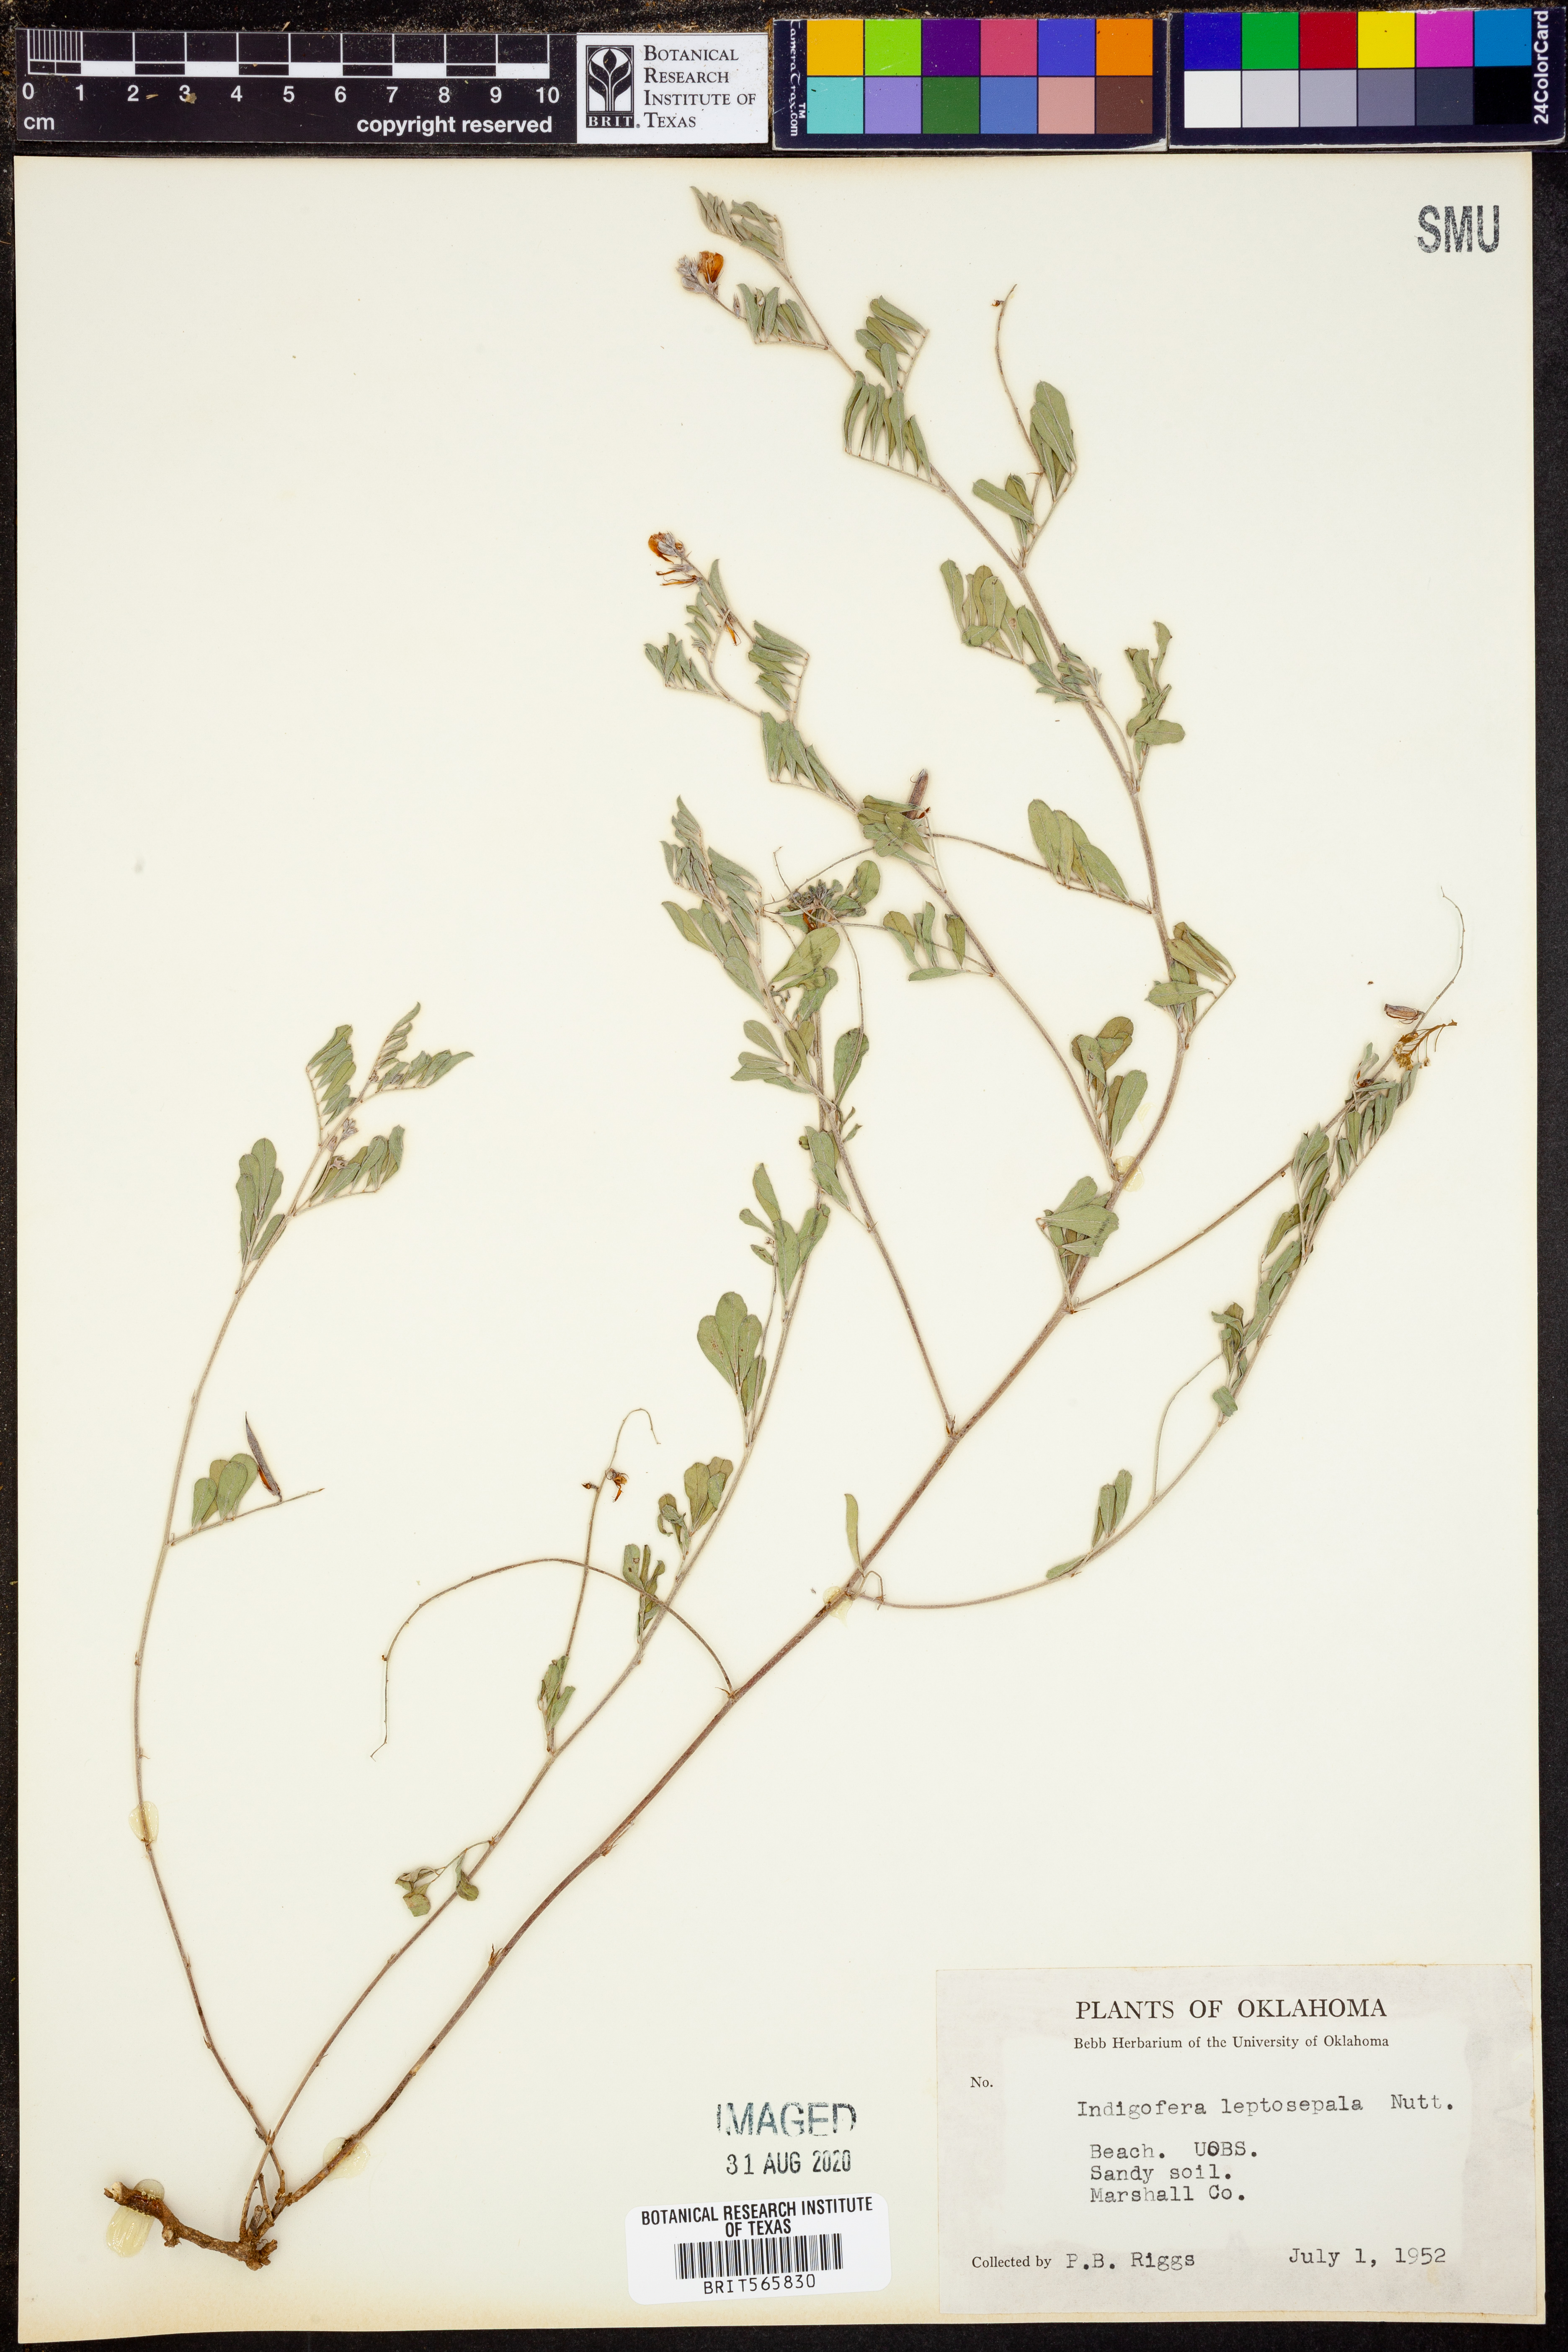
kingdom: Plantae
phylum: Tracheophyta
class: Magnoliopsida
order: Fabales
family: Fabaceae
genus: Indigofera
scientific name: Indigofera argutidens
